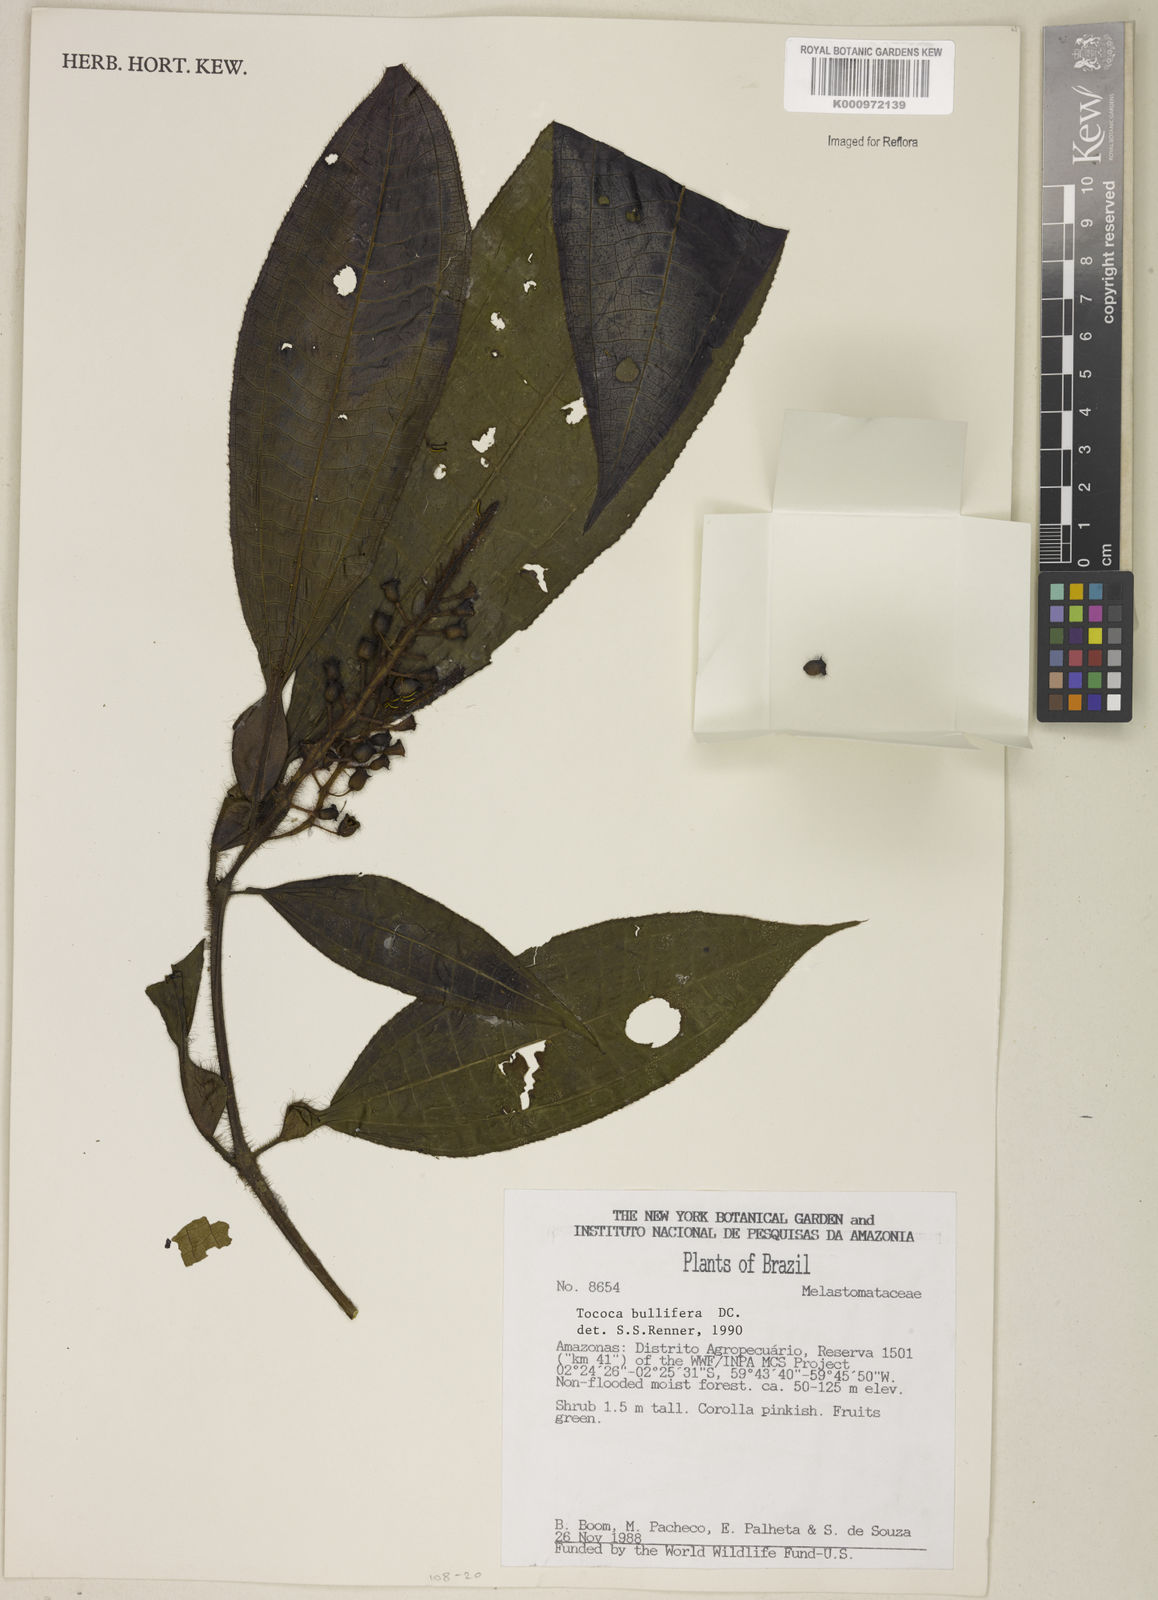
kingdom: Plantae
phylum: Tracheophyta
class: Magnoliopsida
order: Myrtales
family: Melastomataceae
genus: Miconia
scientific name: Miconia bullifera
